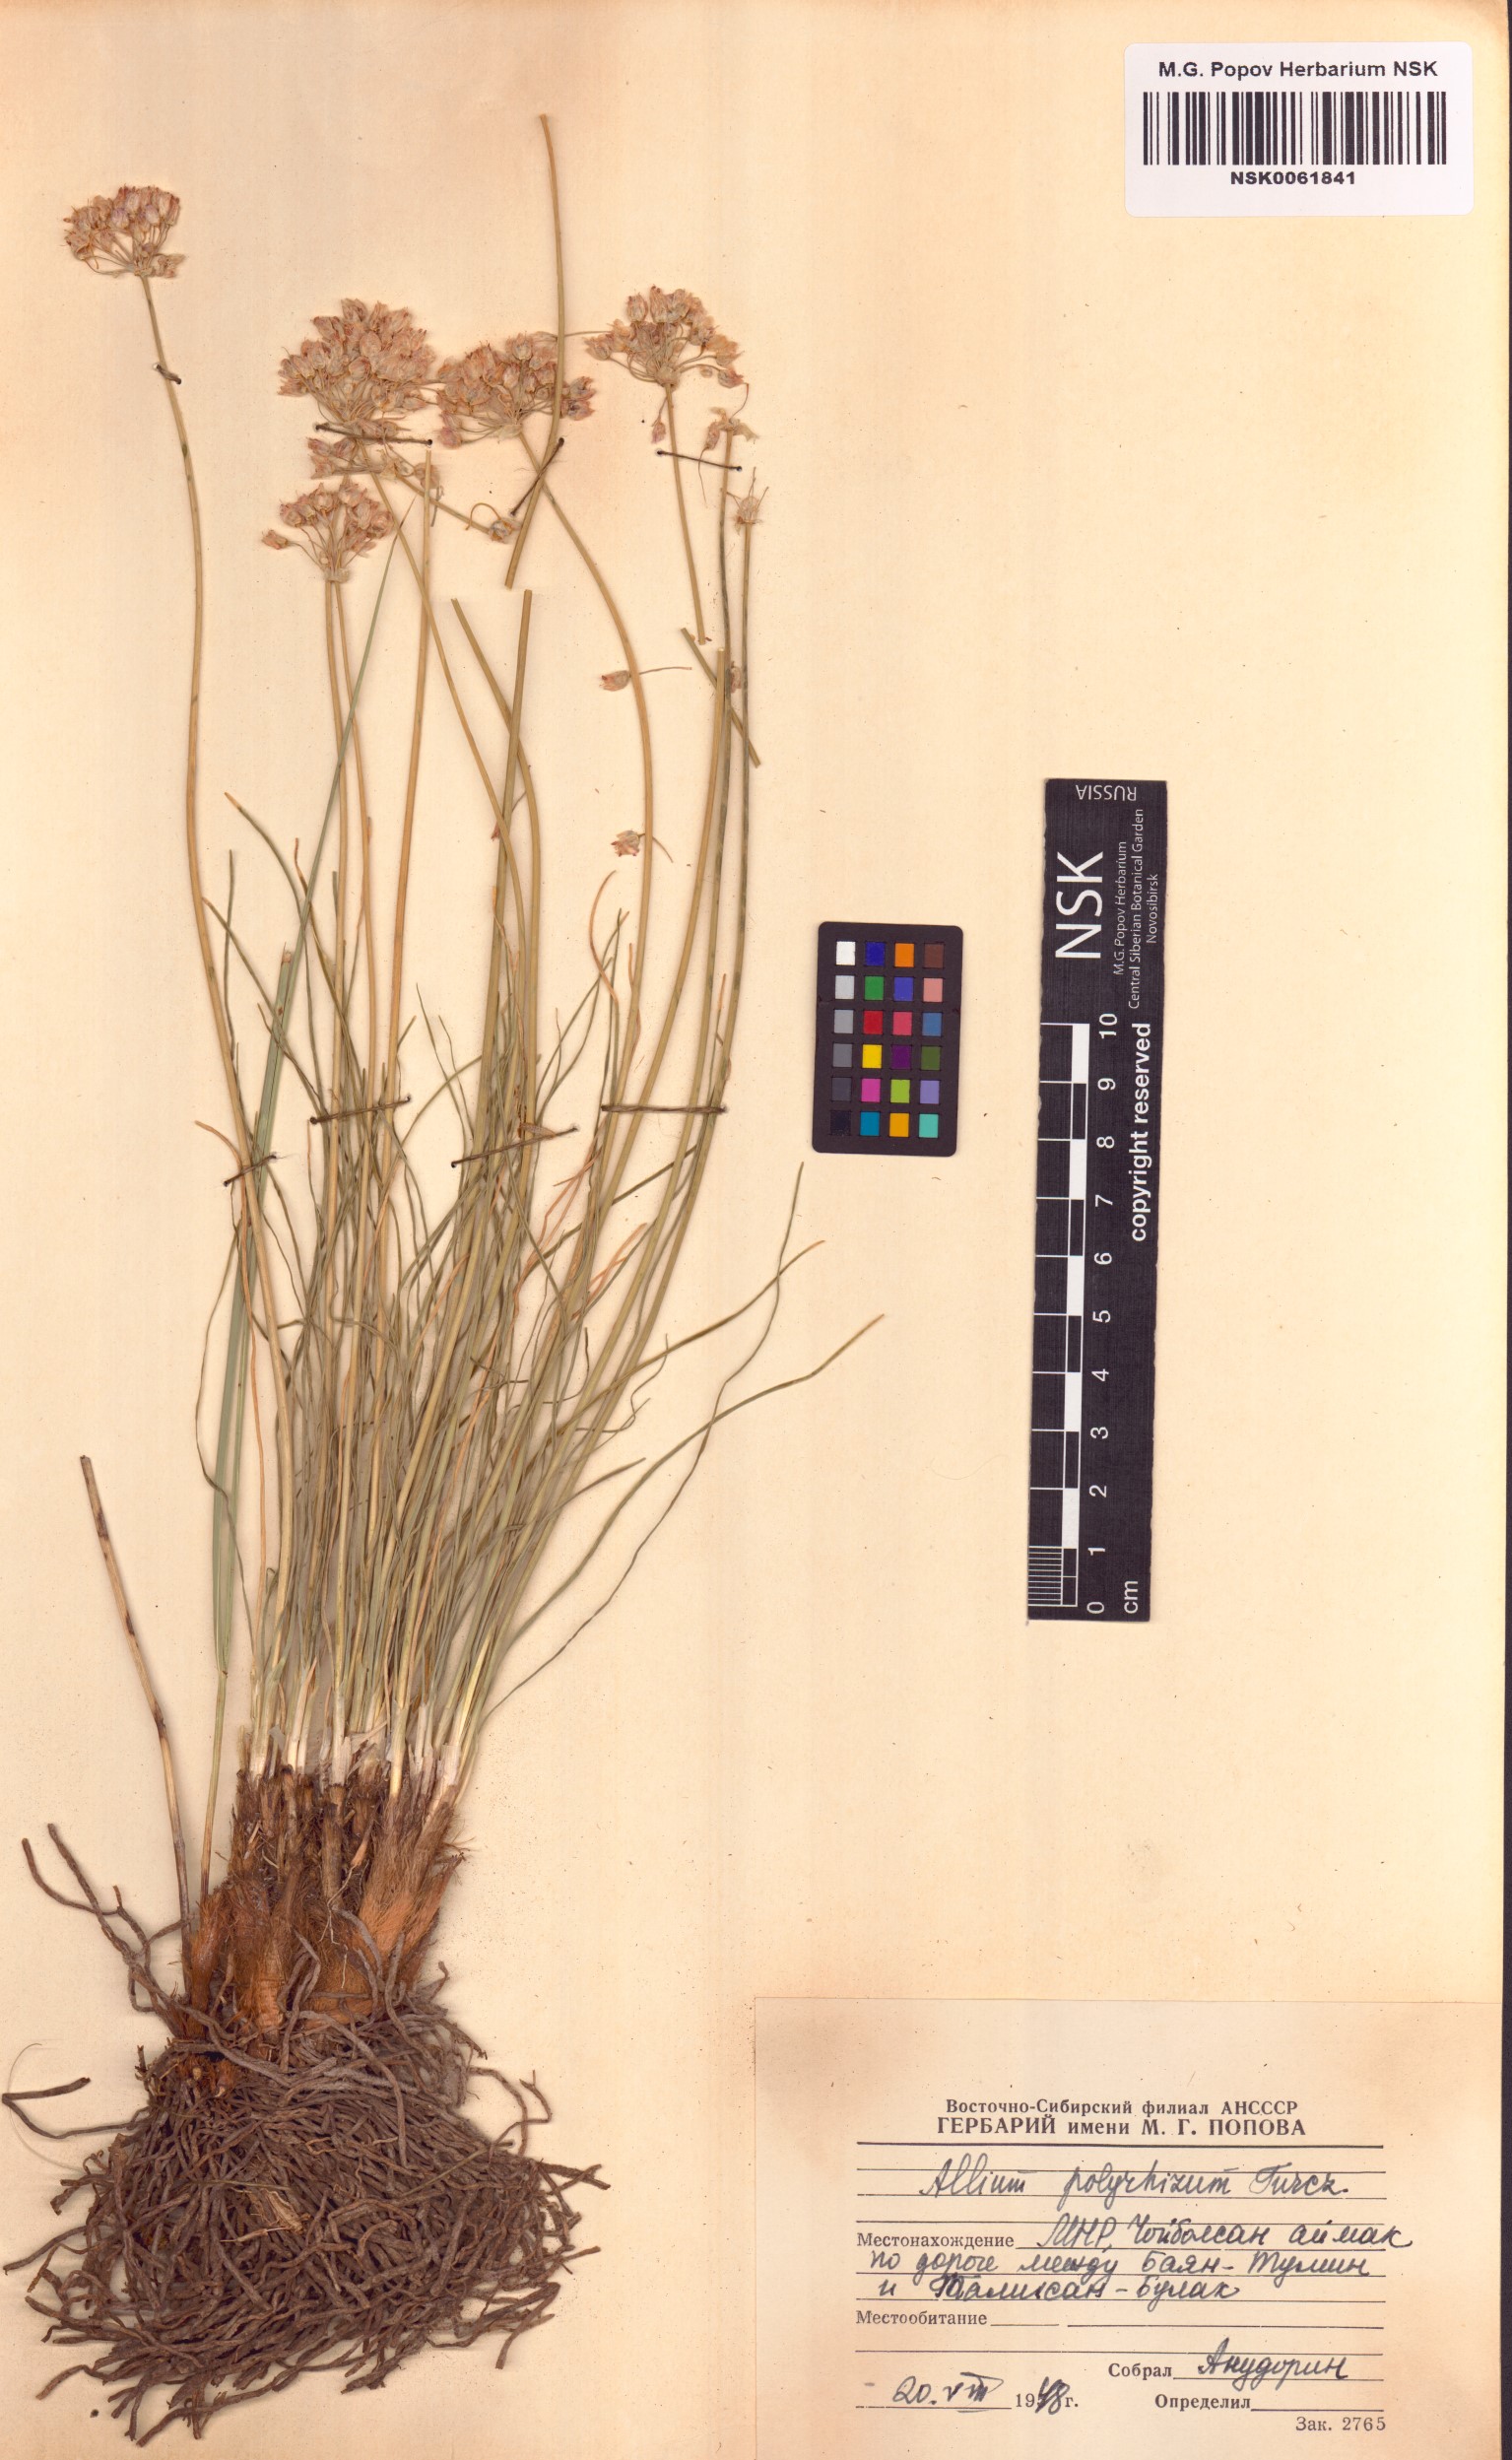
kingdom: Plantae
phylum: Tracheophyta
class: Liliopsida
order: Asparagales
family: Amaryllidaceae
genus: Allium
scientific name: Allium polyrhizum
